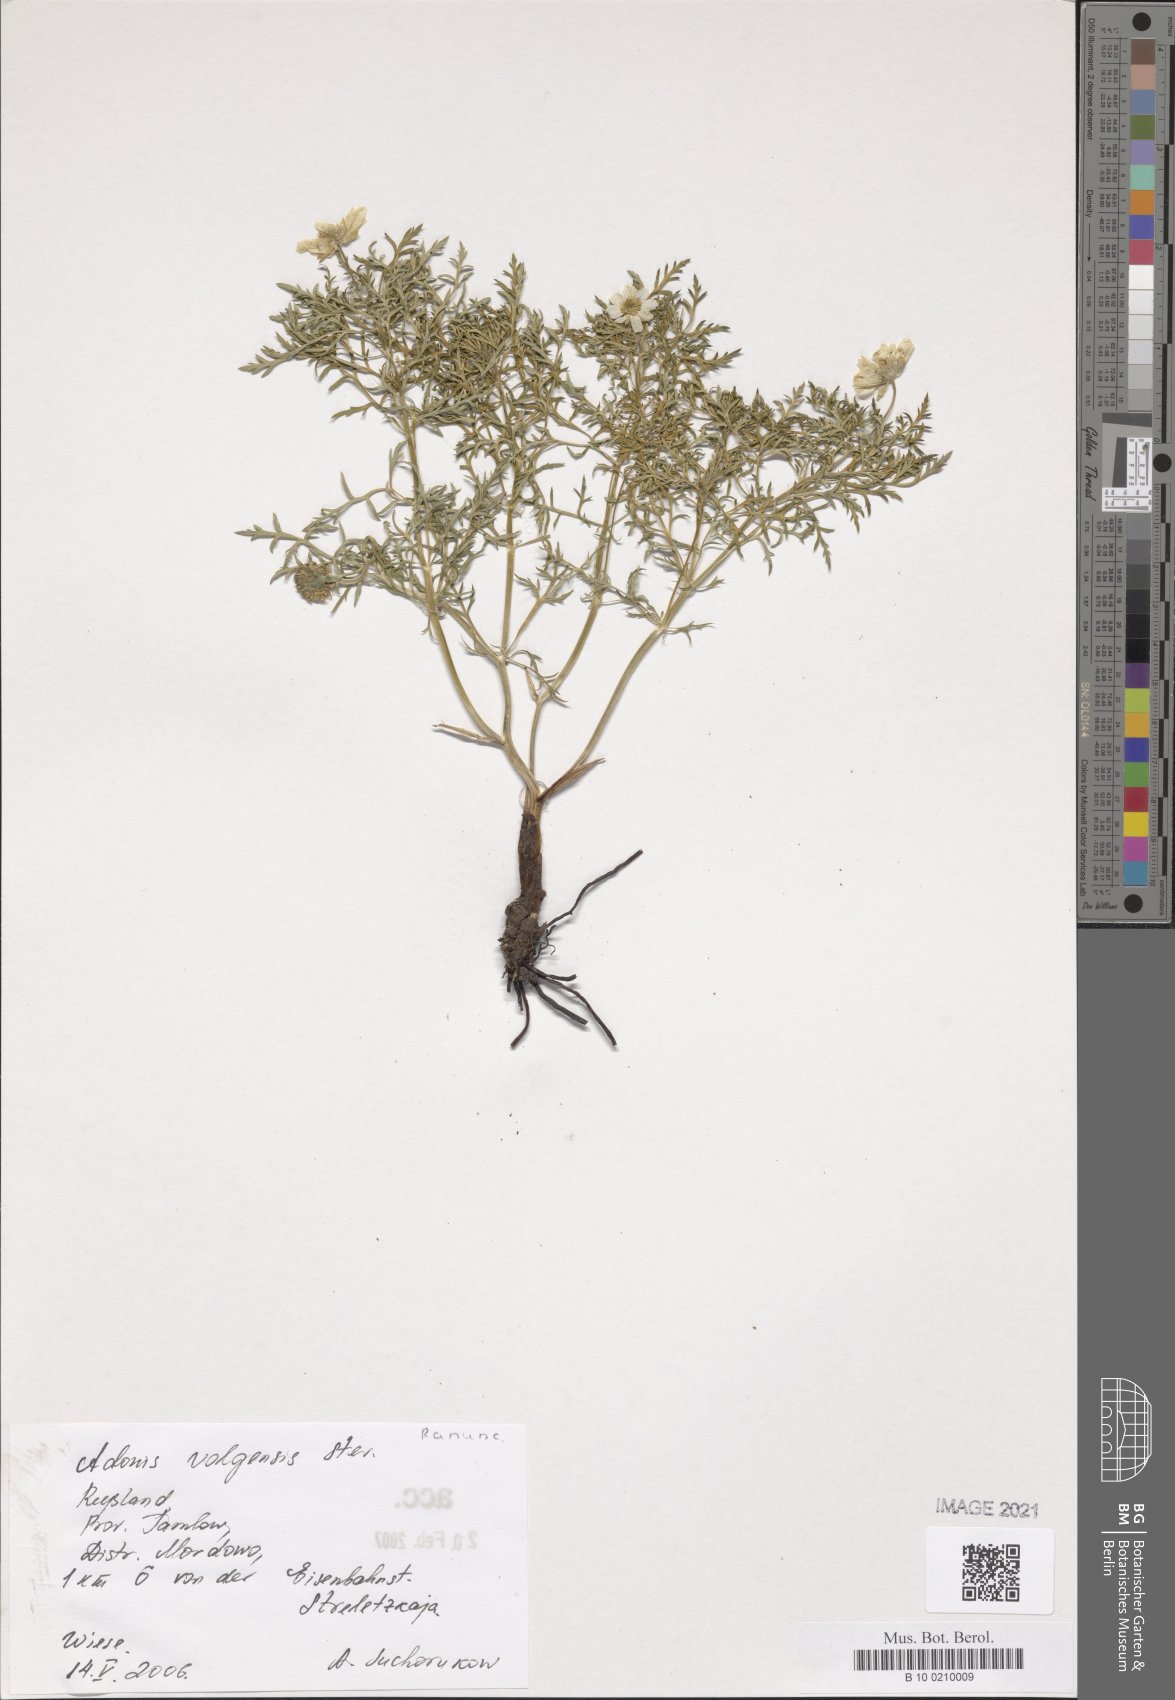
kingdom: Plantae
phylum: Tracheophyta
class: Magnoliopsida
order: Ranunculales
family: Ranunculaceae
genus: Adonis
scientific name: Adonis volgensis
